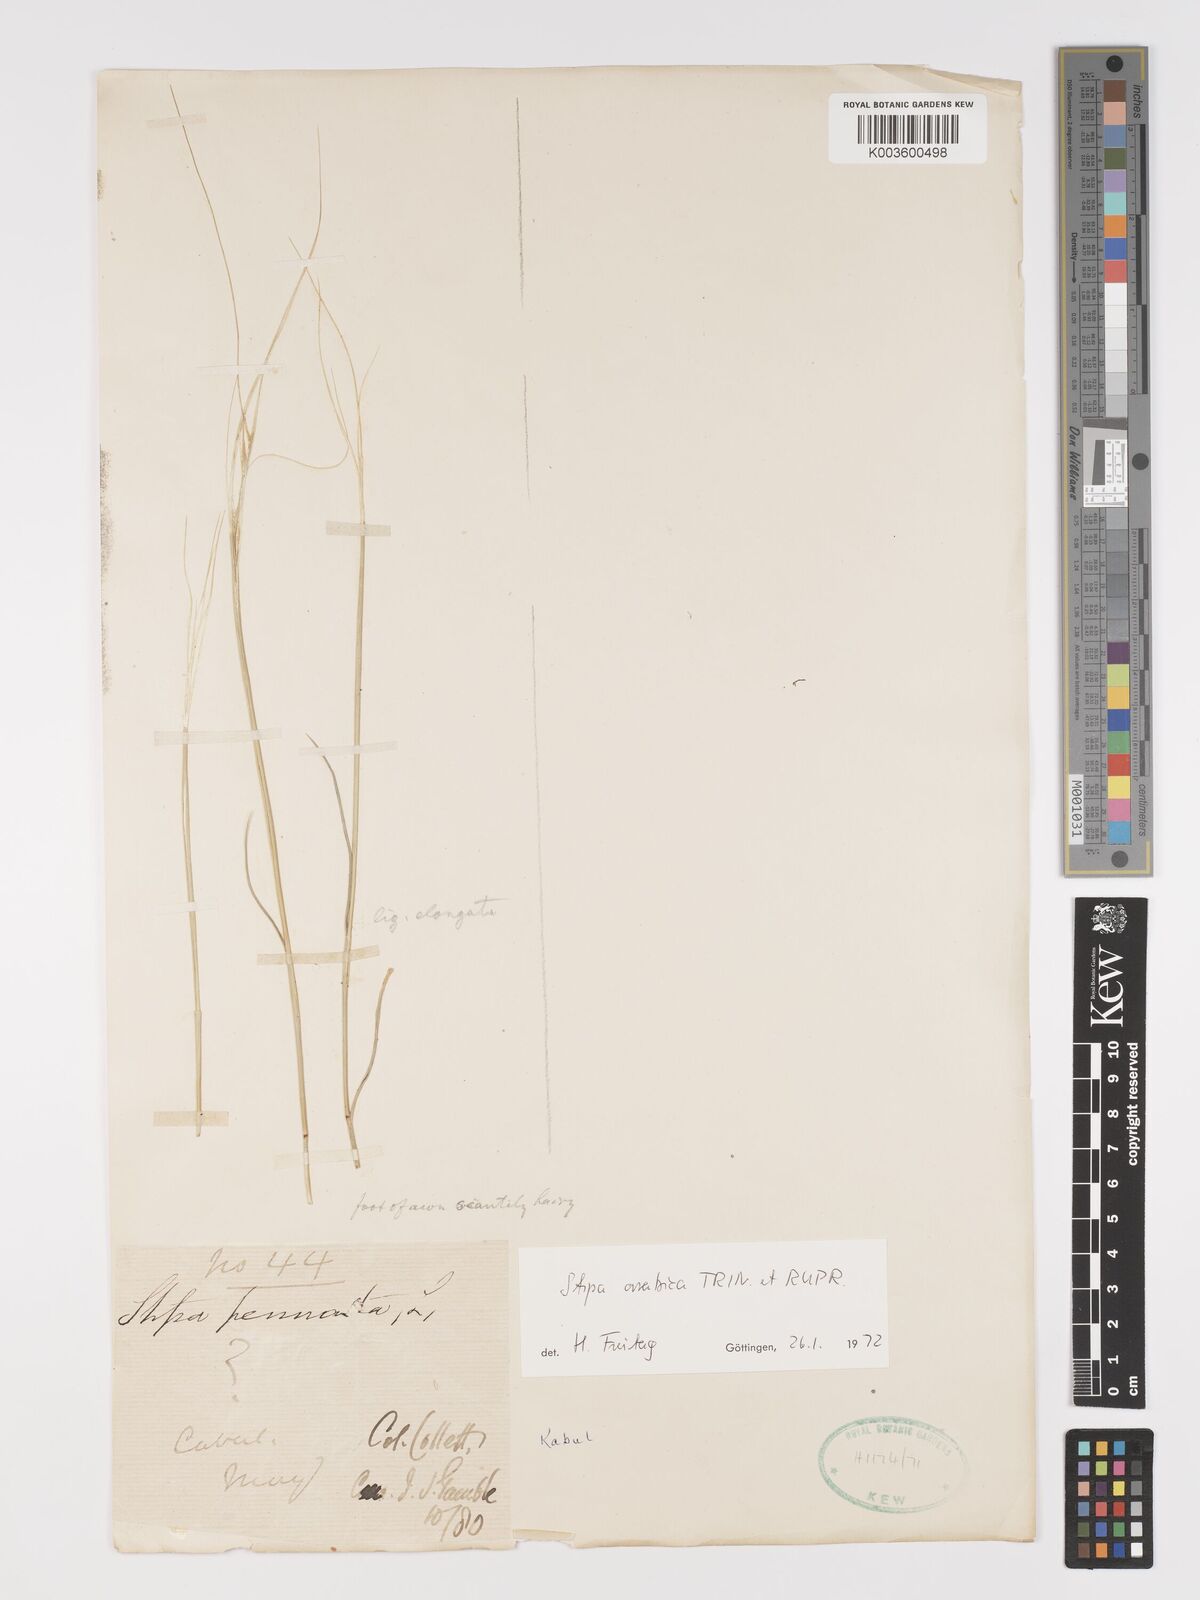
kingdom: Plantae
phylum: Tracheophyta
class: Liliopsida
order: Poales
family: Poaceae
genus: Stipa
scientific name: Stipa arabica
